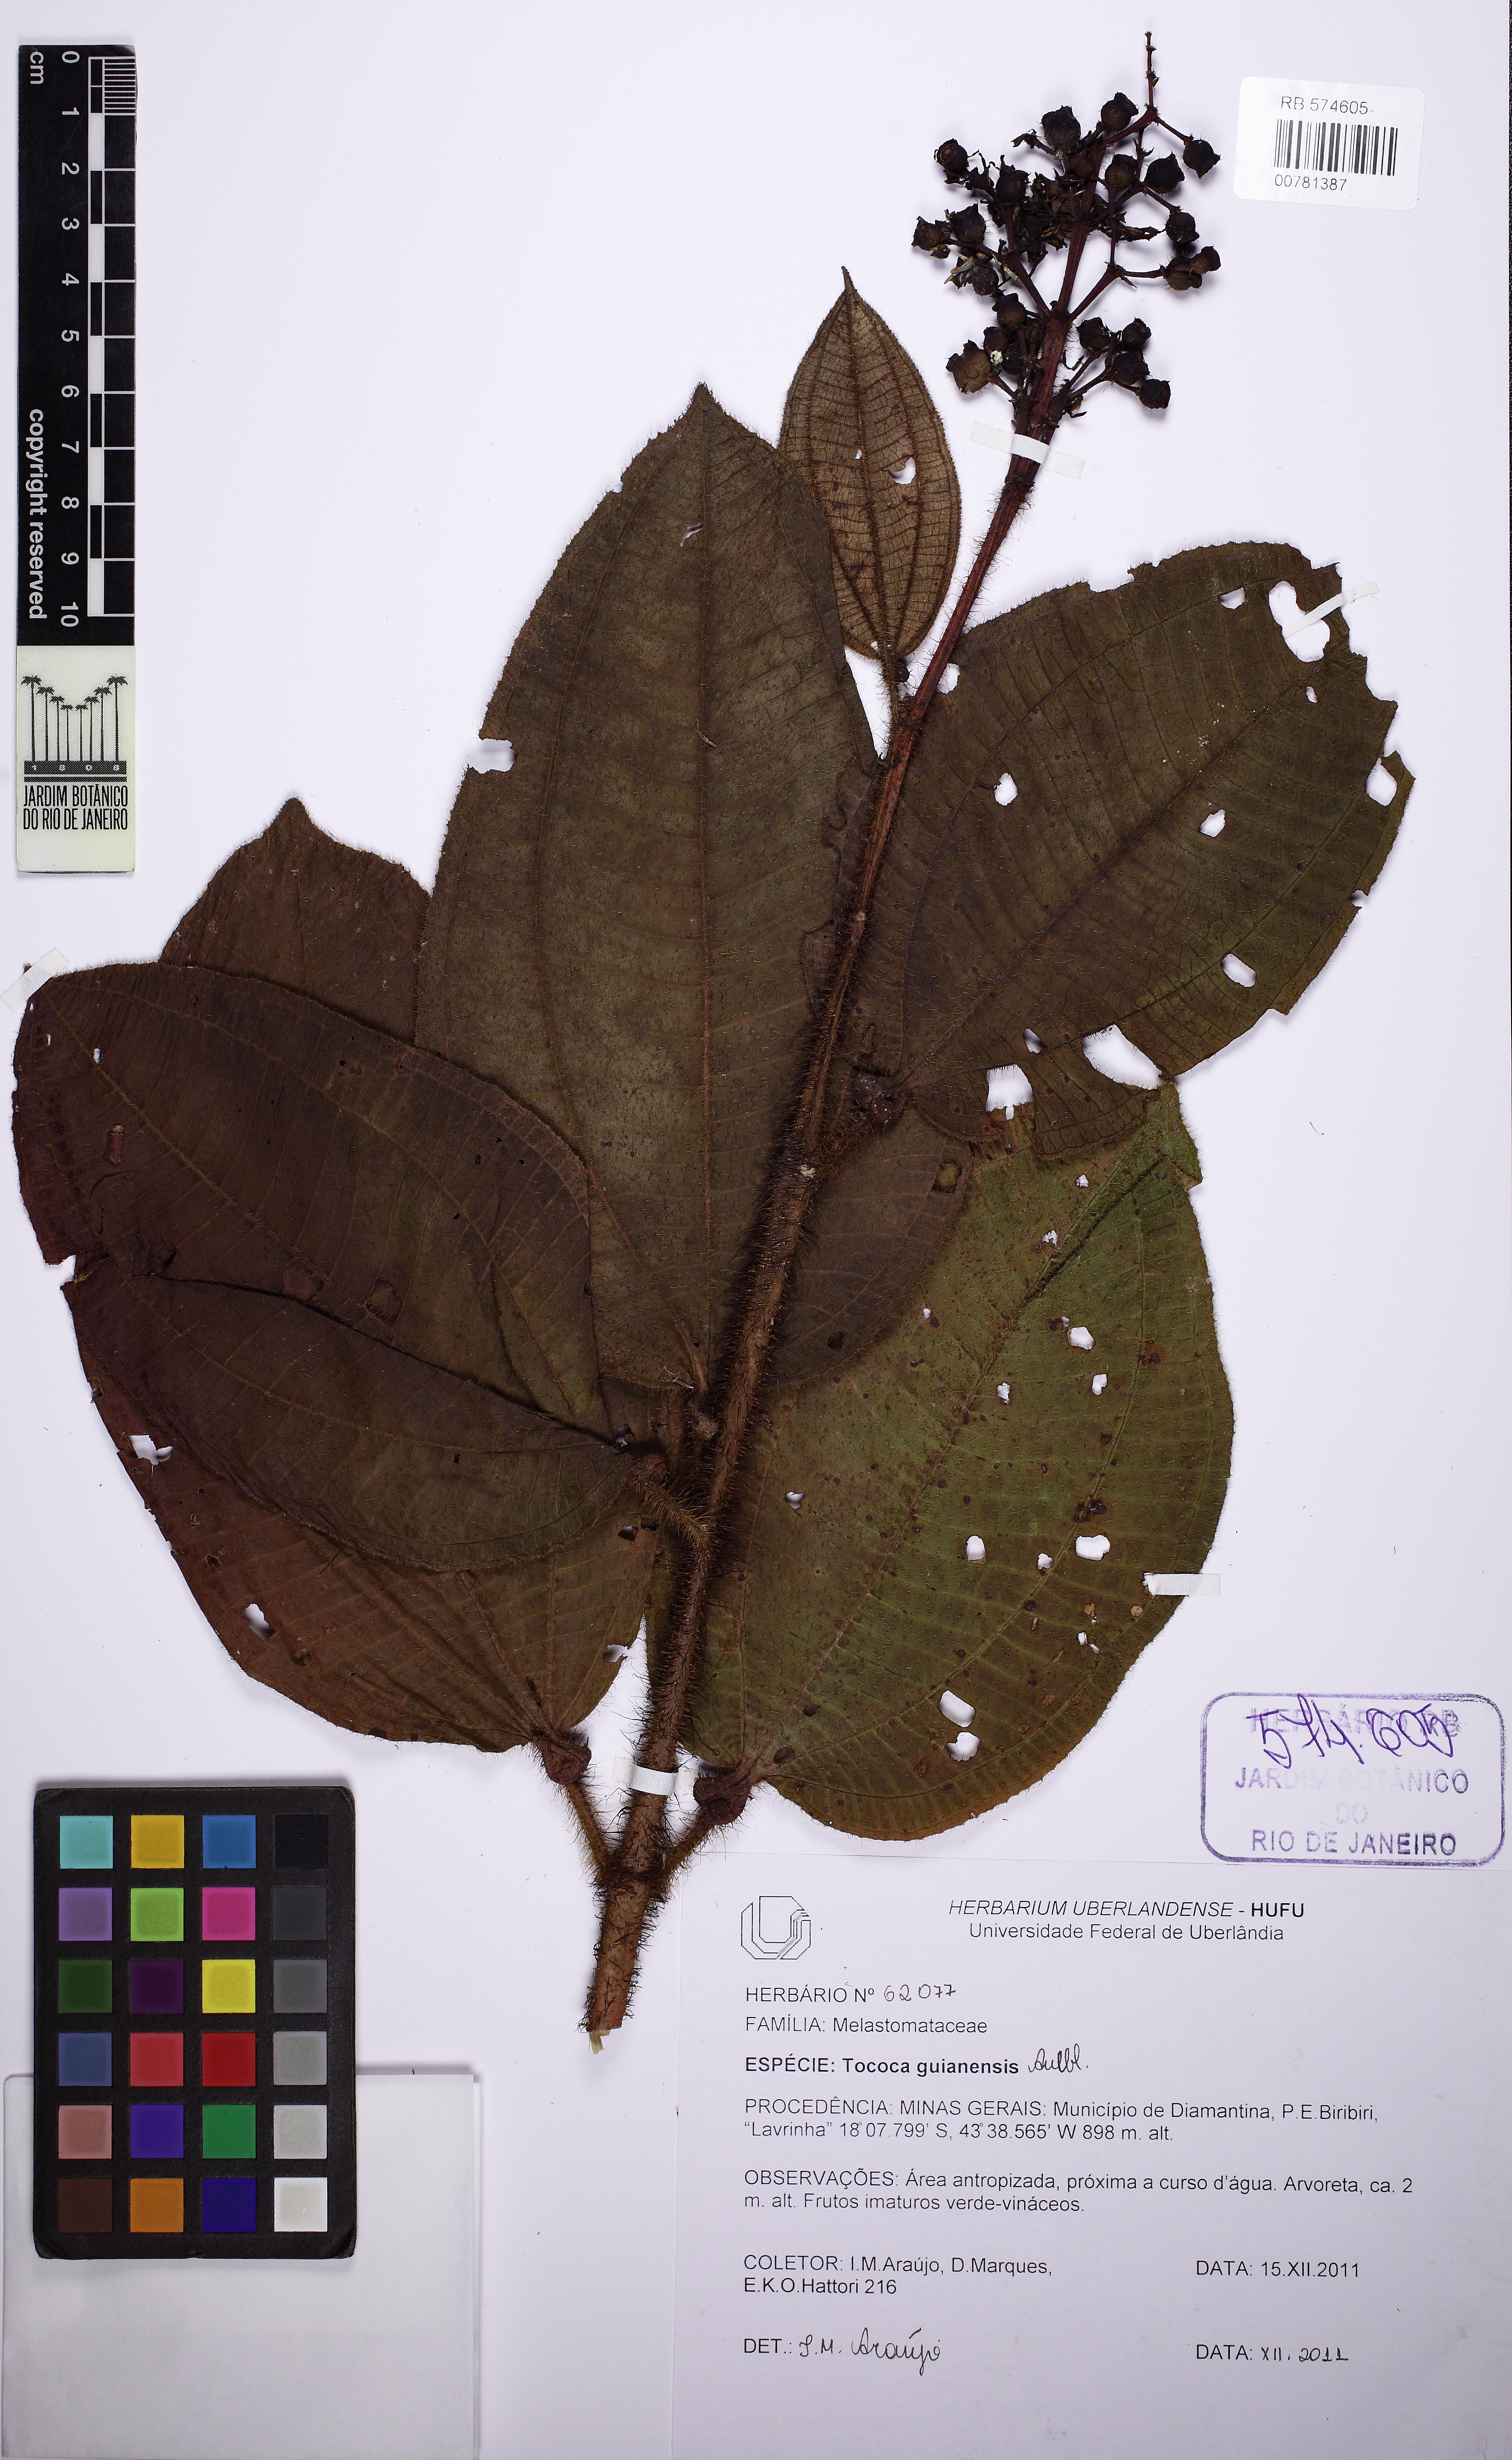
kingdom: Plantae
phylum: Tracheophyta
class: Magnoliopsida
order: Myrtales
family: Melastomataceae
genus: Miconia
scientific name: Miconia tococa
